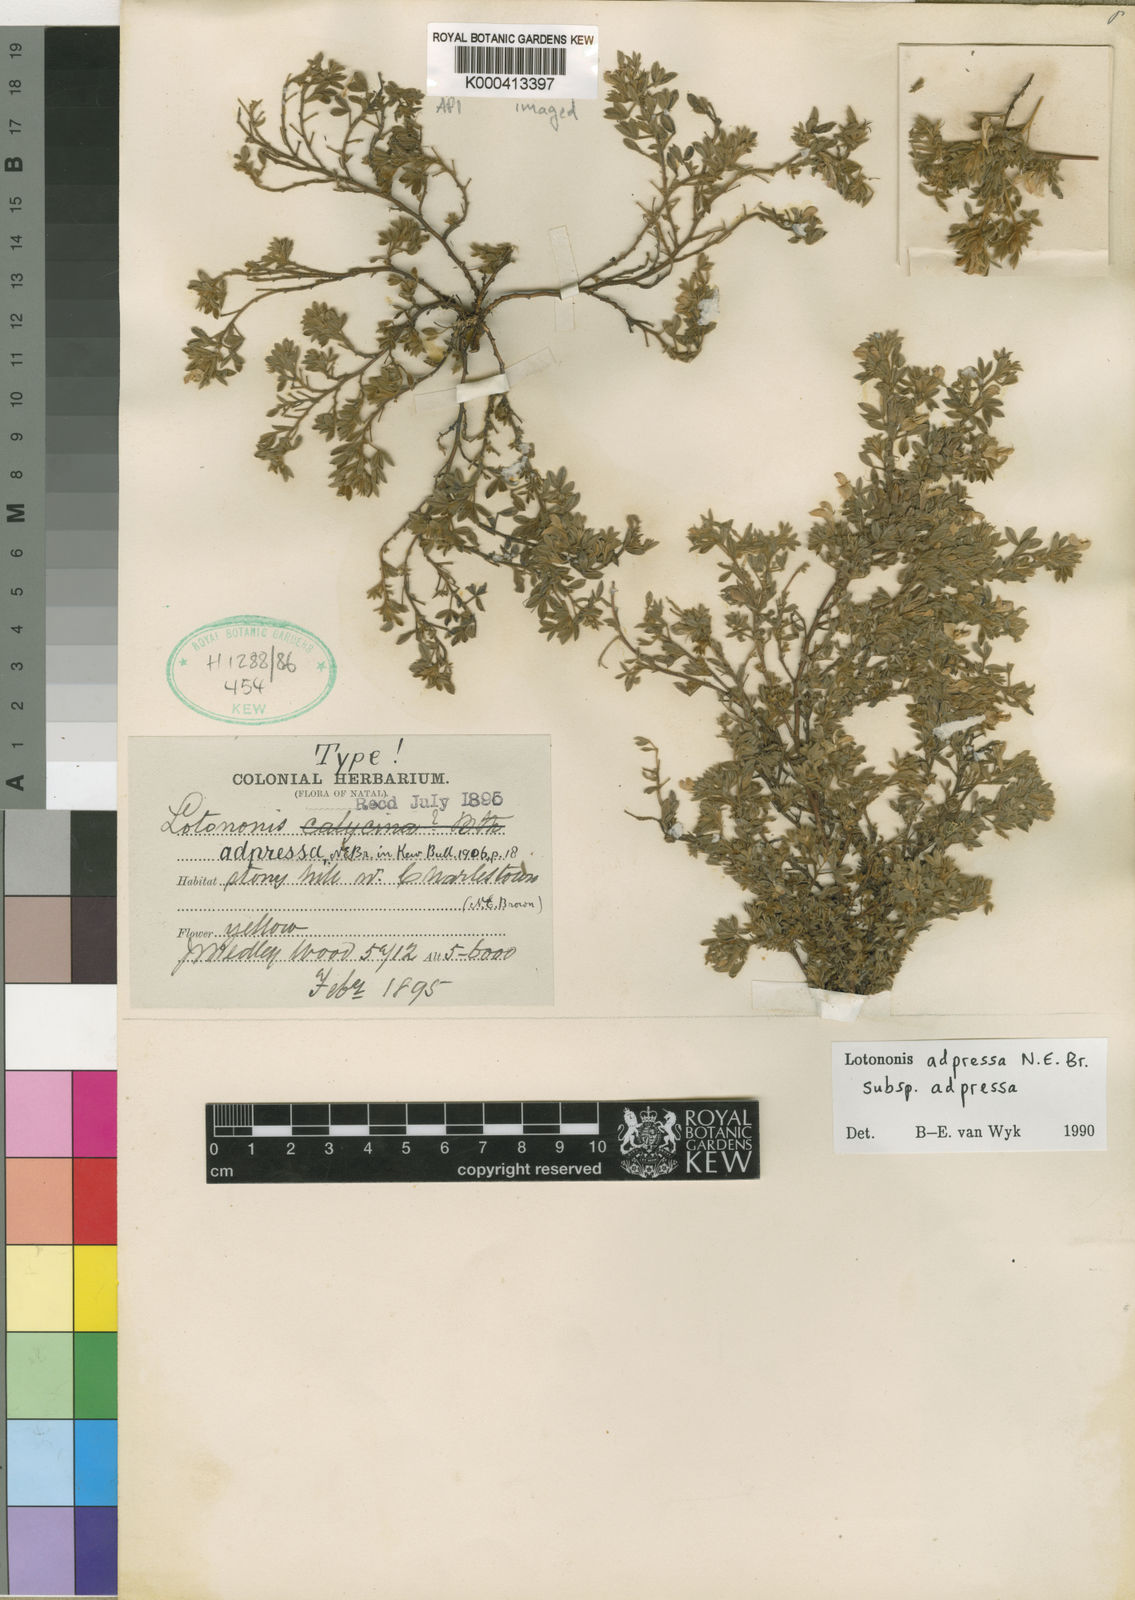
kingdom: Plantae
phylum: Tracheophyta
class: Magnoliopsida
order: Fabales
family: Fabaceae
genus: Leobordea
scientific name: Leobordea adpressa
